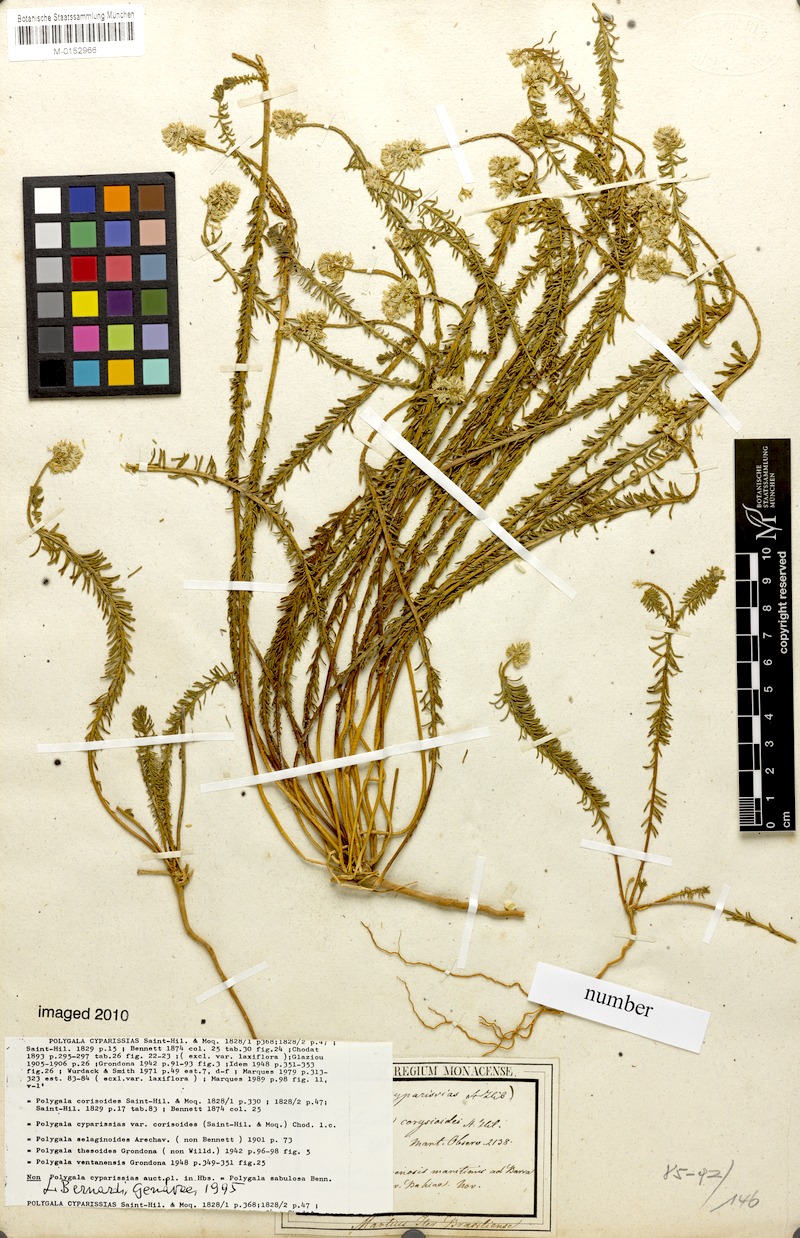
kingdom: Plantae
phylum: Tracheophyta
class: Magnoliopsida
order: Fabales
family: Polygalaceae
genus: Polygala
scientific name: Polygala cyparissias
